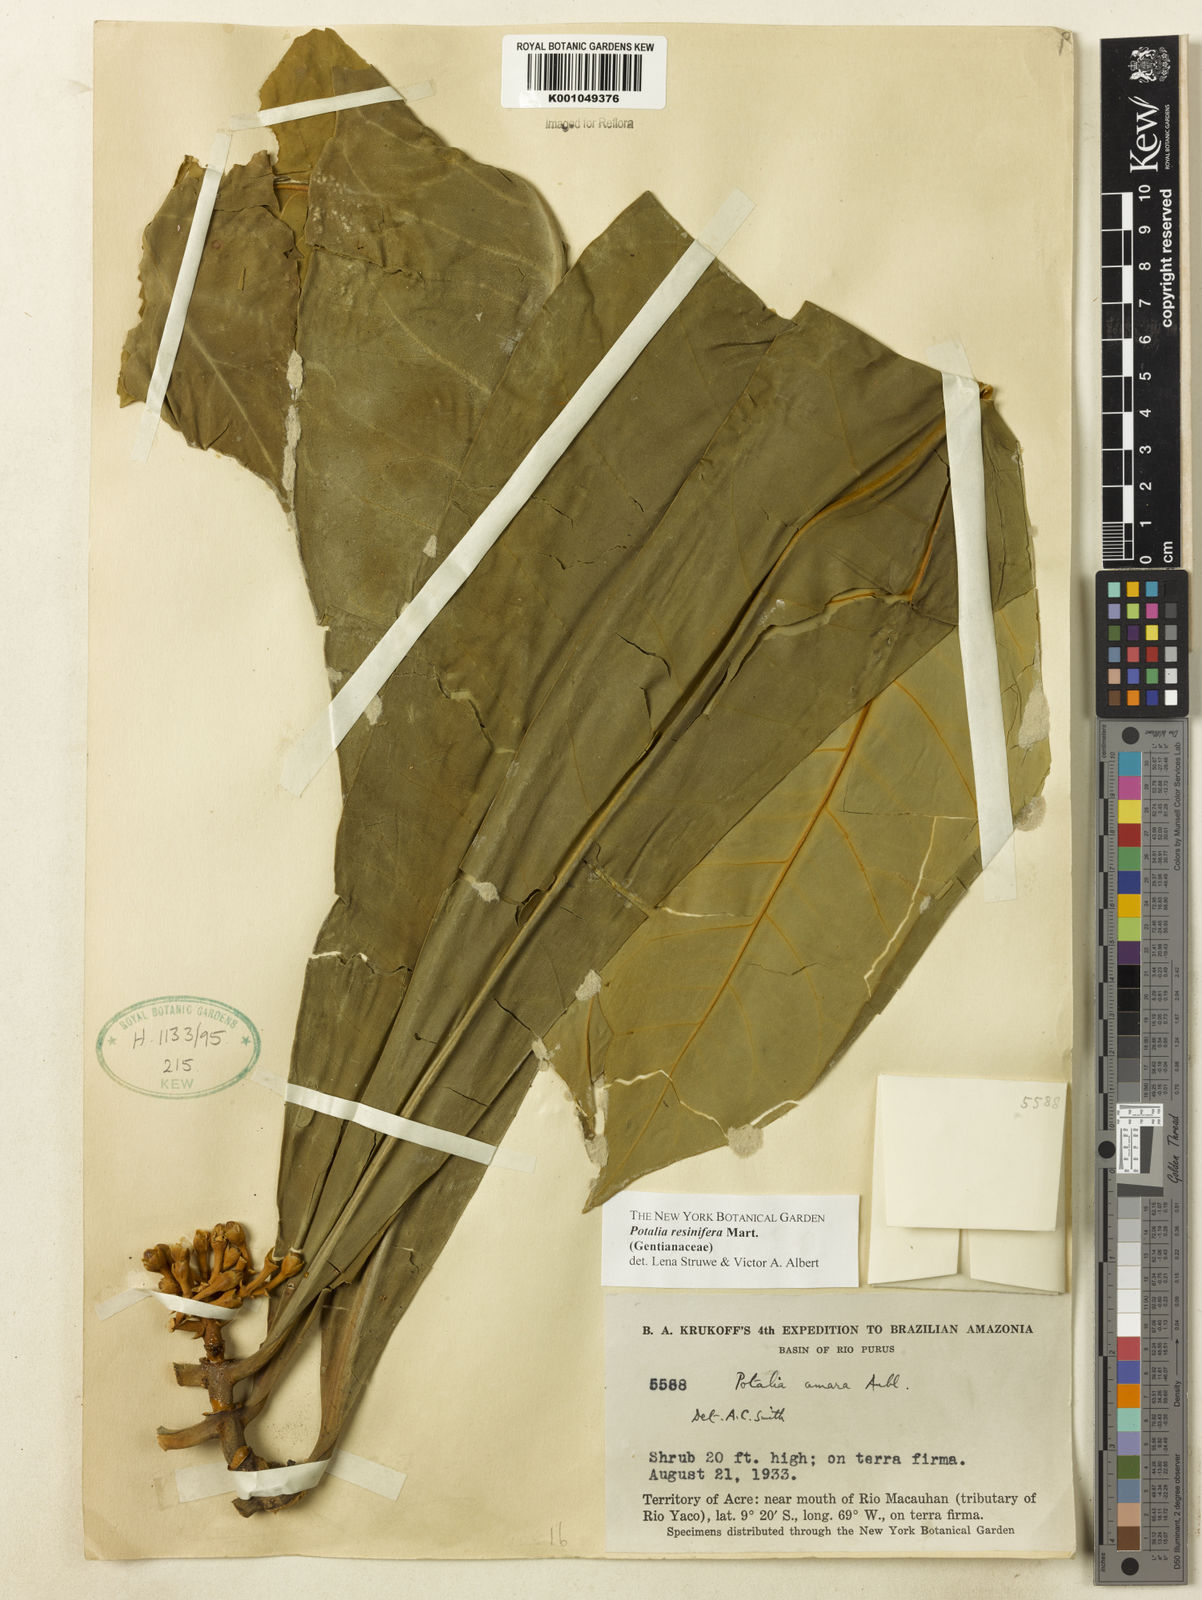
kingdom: Plantae
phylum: Tracheophyta
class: Magnoliopsida
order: Gentianales
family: Gentianaceae
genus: Potalia
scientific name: Potalia resinifera
